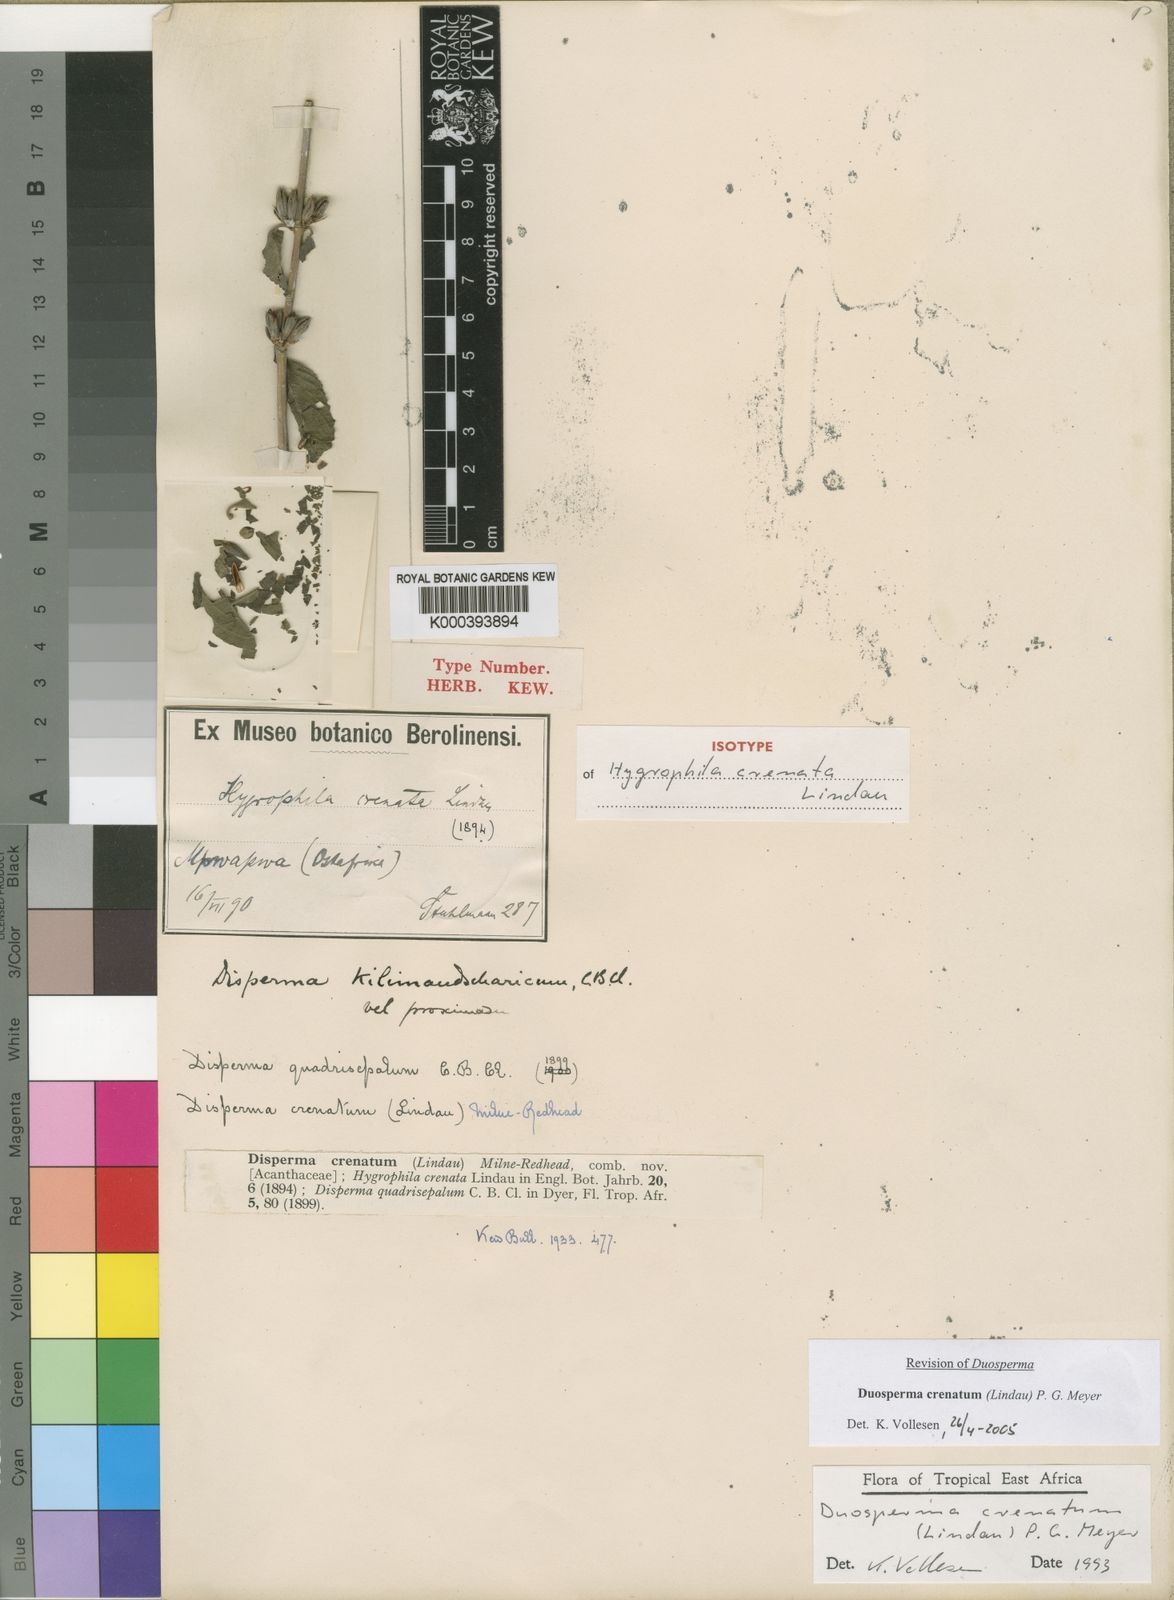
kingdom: Plantae
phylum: Tracheophyta
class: Magnoliopsida
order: Lamiales
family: Acanthaceae
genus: Duosperma
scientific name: Duosperma crenatum
